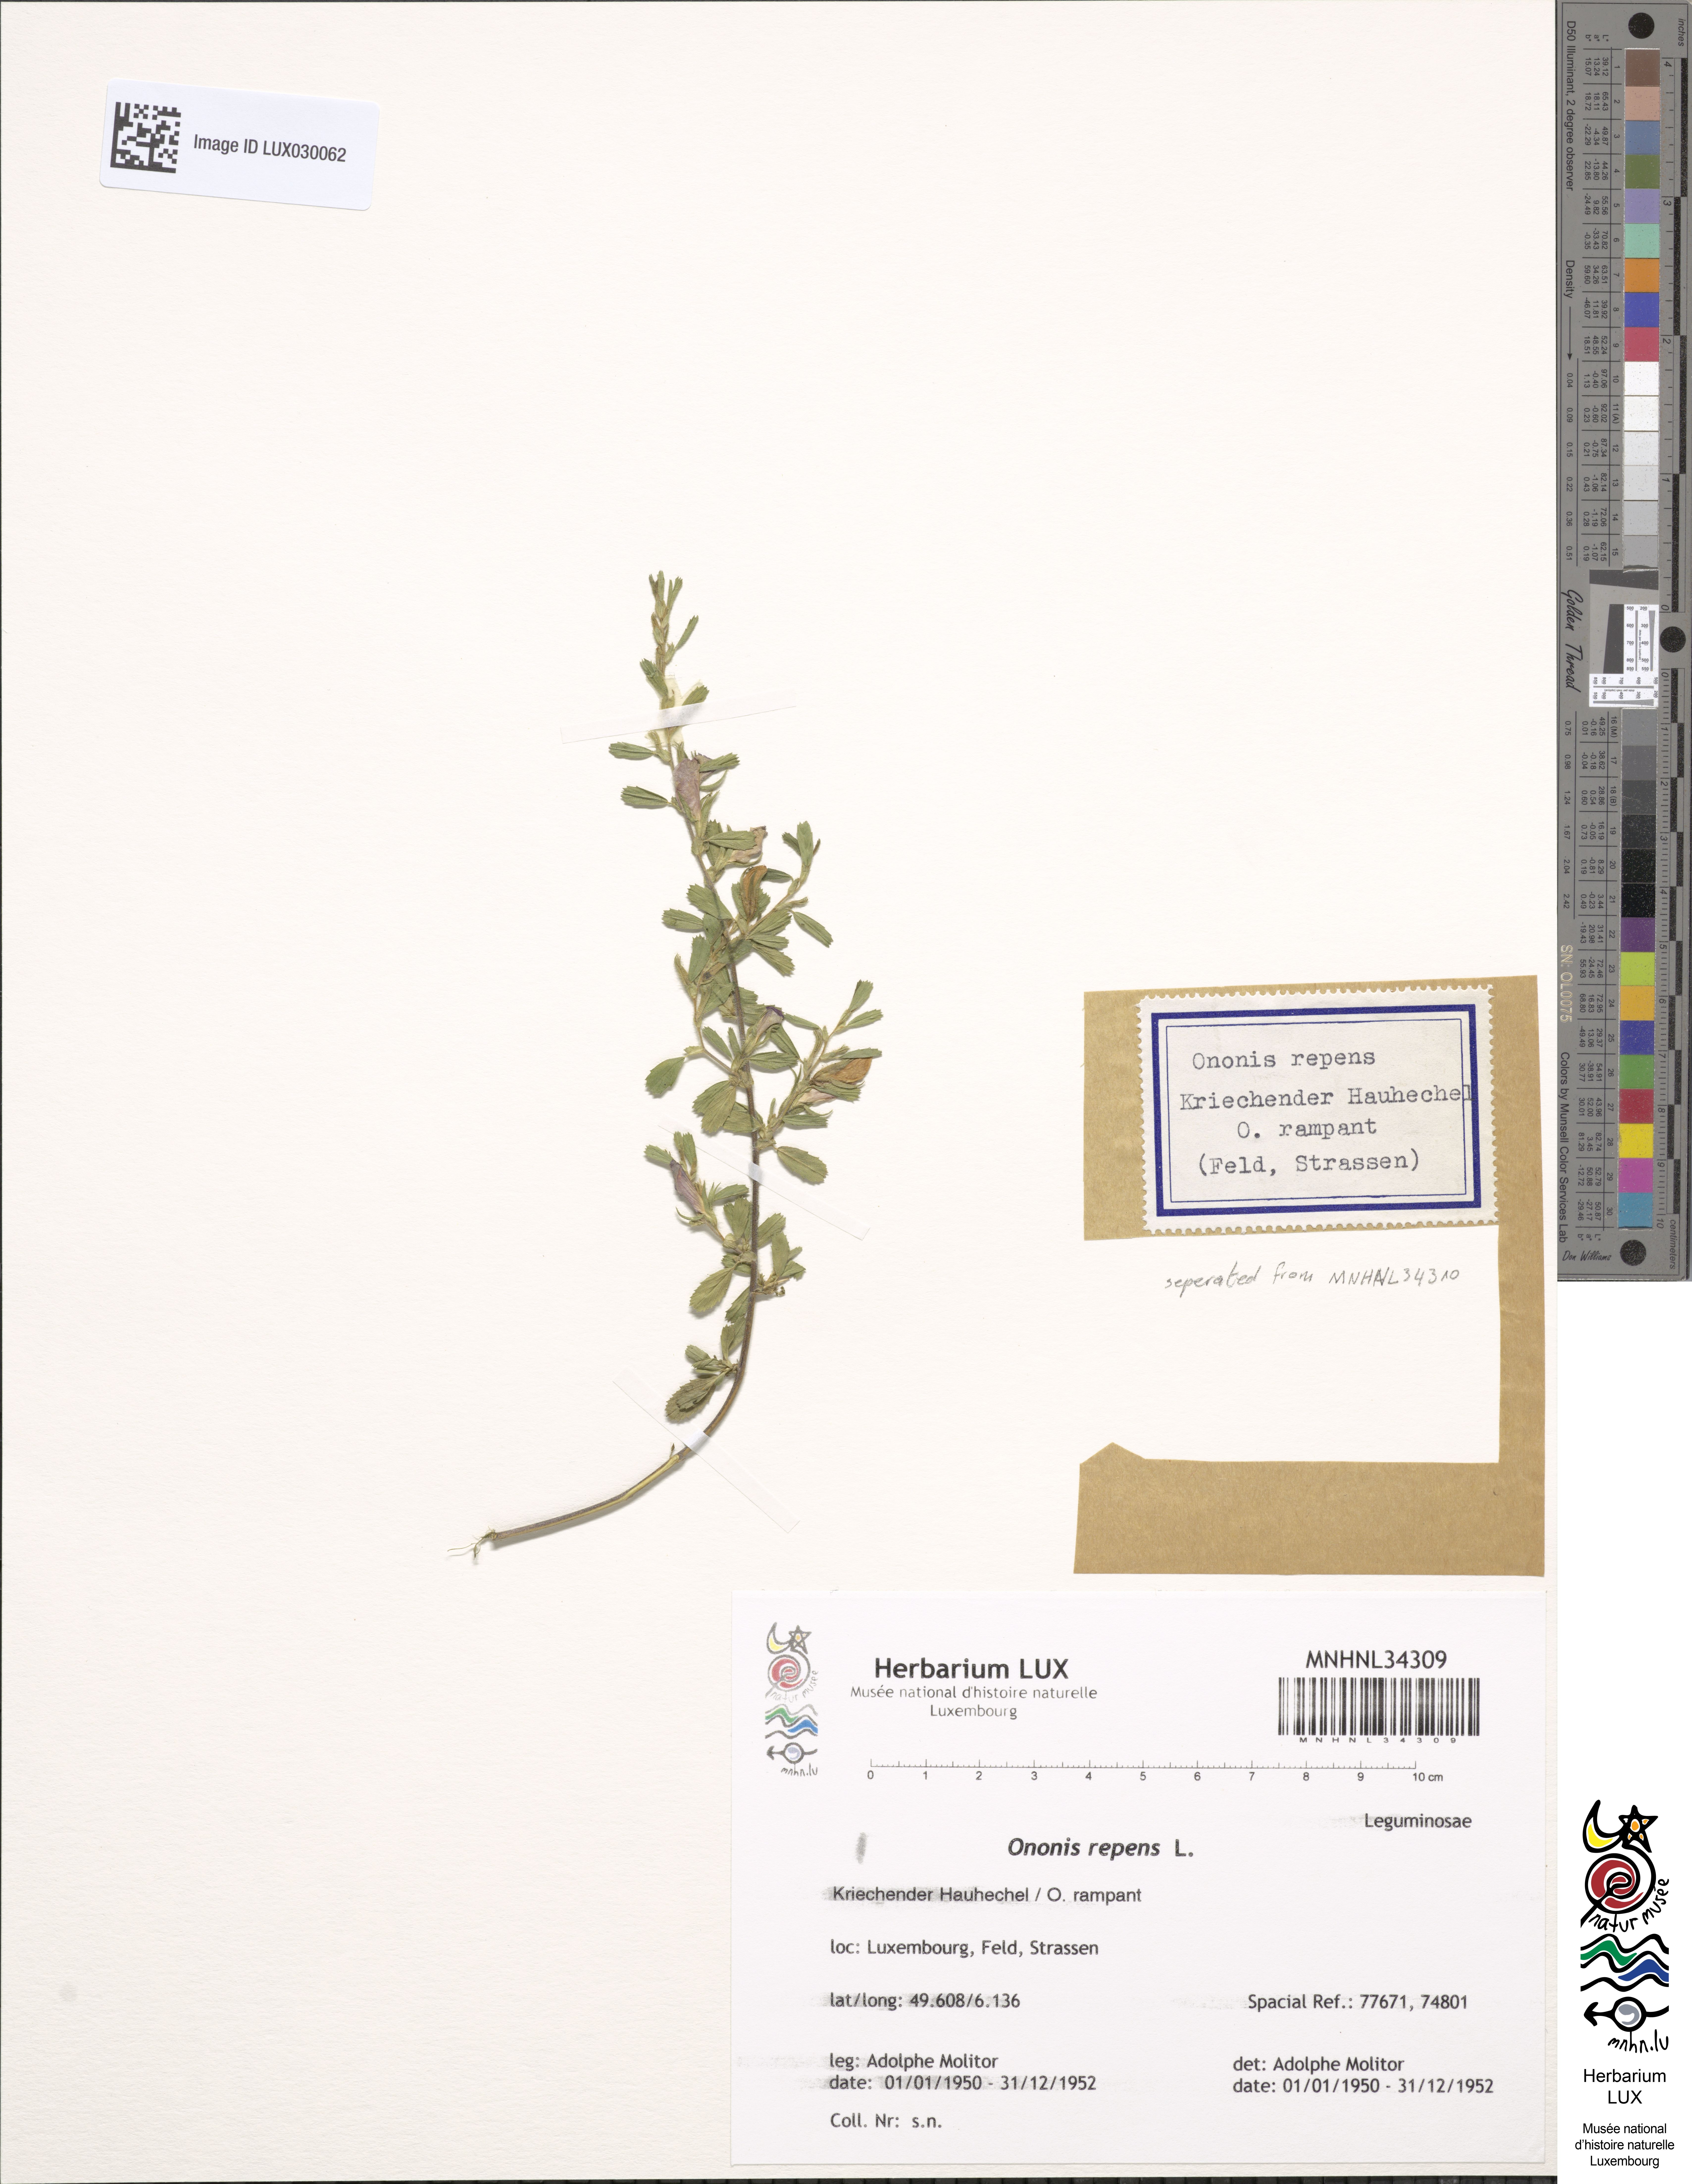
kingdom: Plantae
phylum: Tracheophyta
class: Magnoliopsida
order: Fabales
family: Fabaceae
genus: Ononis
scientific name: Ononis spinosa
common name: Spiny restharrow
